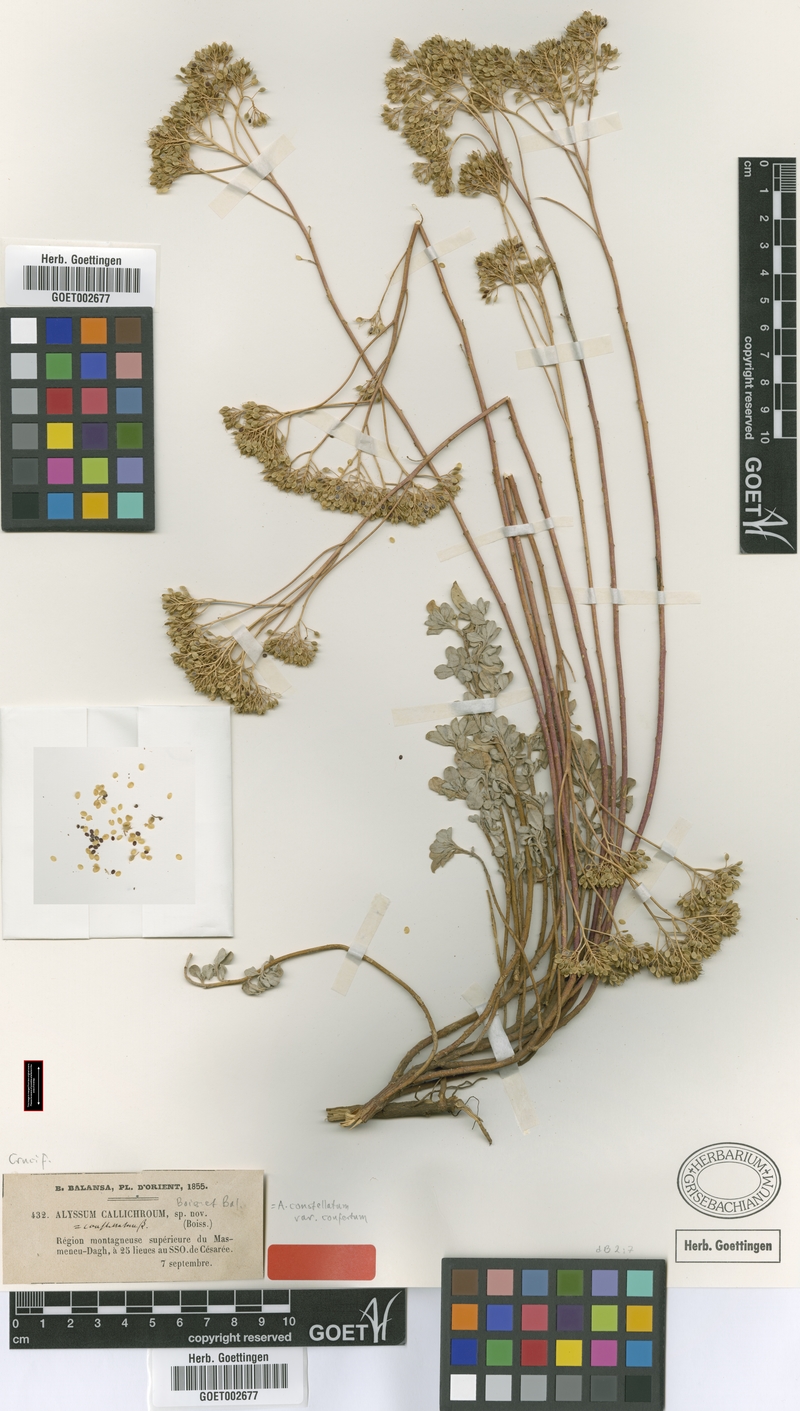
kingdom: Plantae
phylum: Tracheophyta
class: Magnoliopsida
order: Brassicales
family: Brassicaceae
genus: Odontarrhena
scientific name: Odontarrhena callichroa
